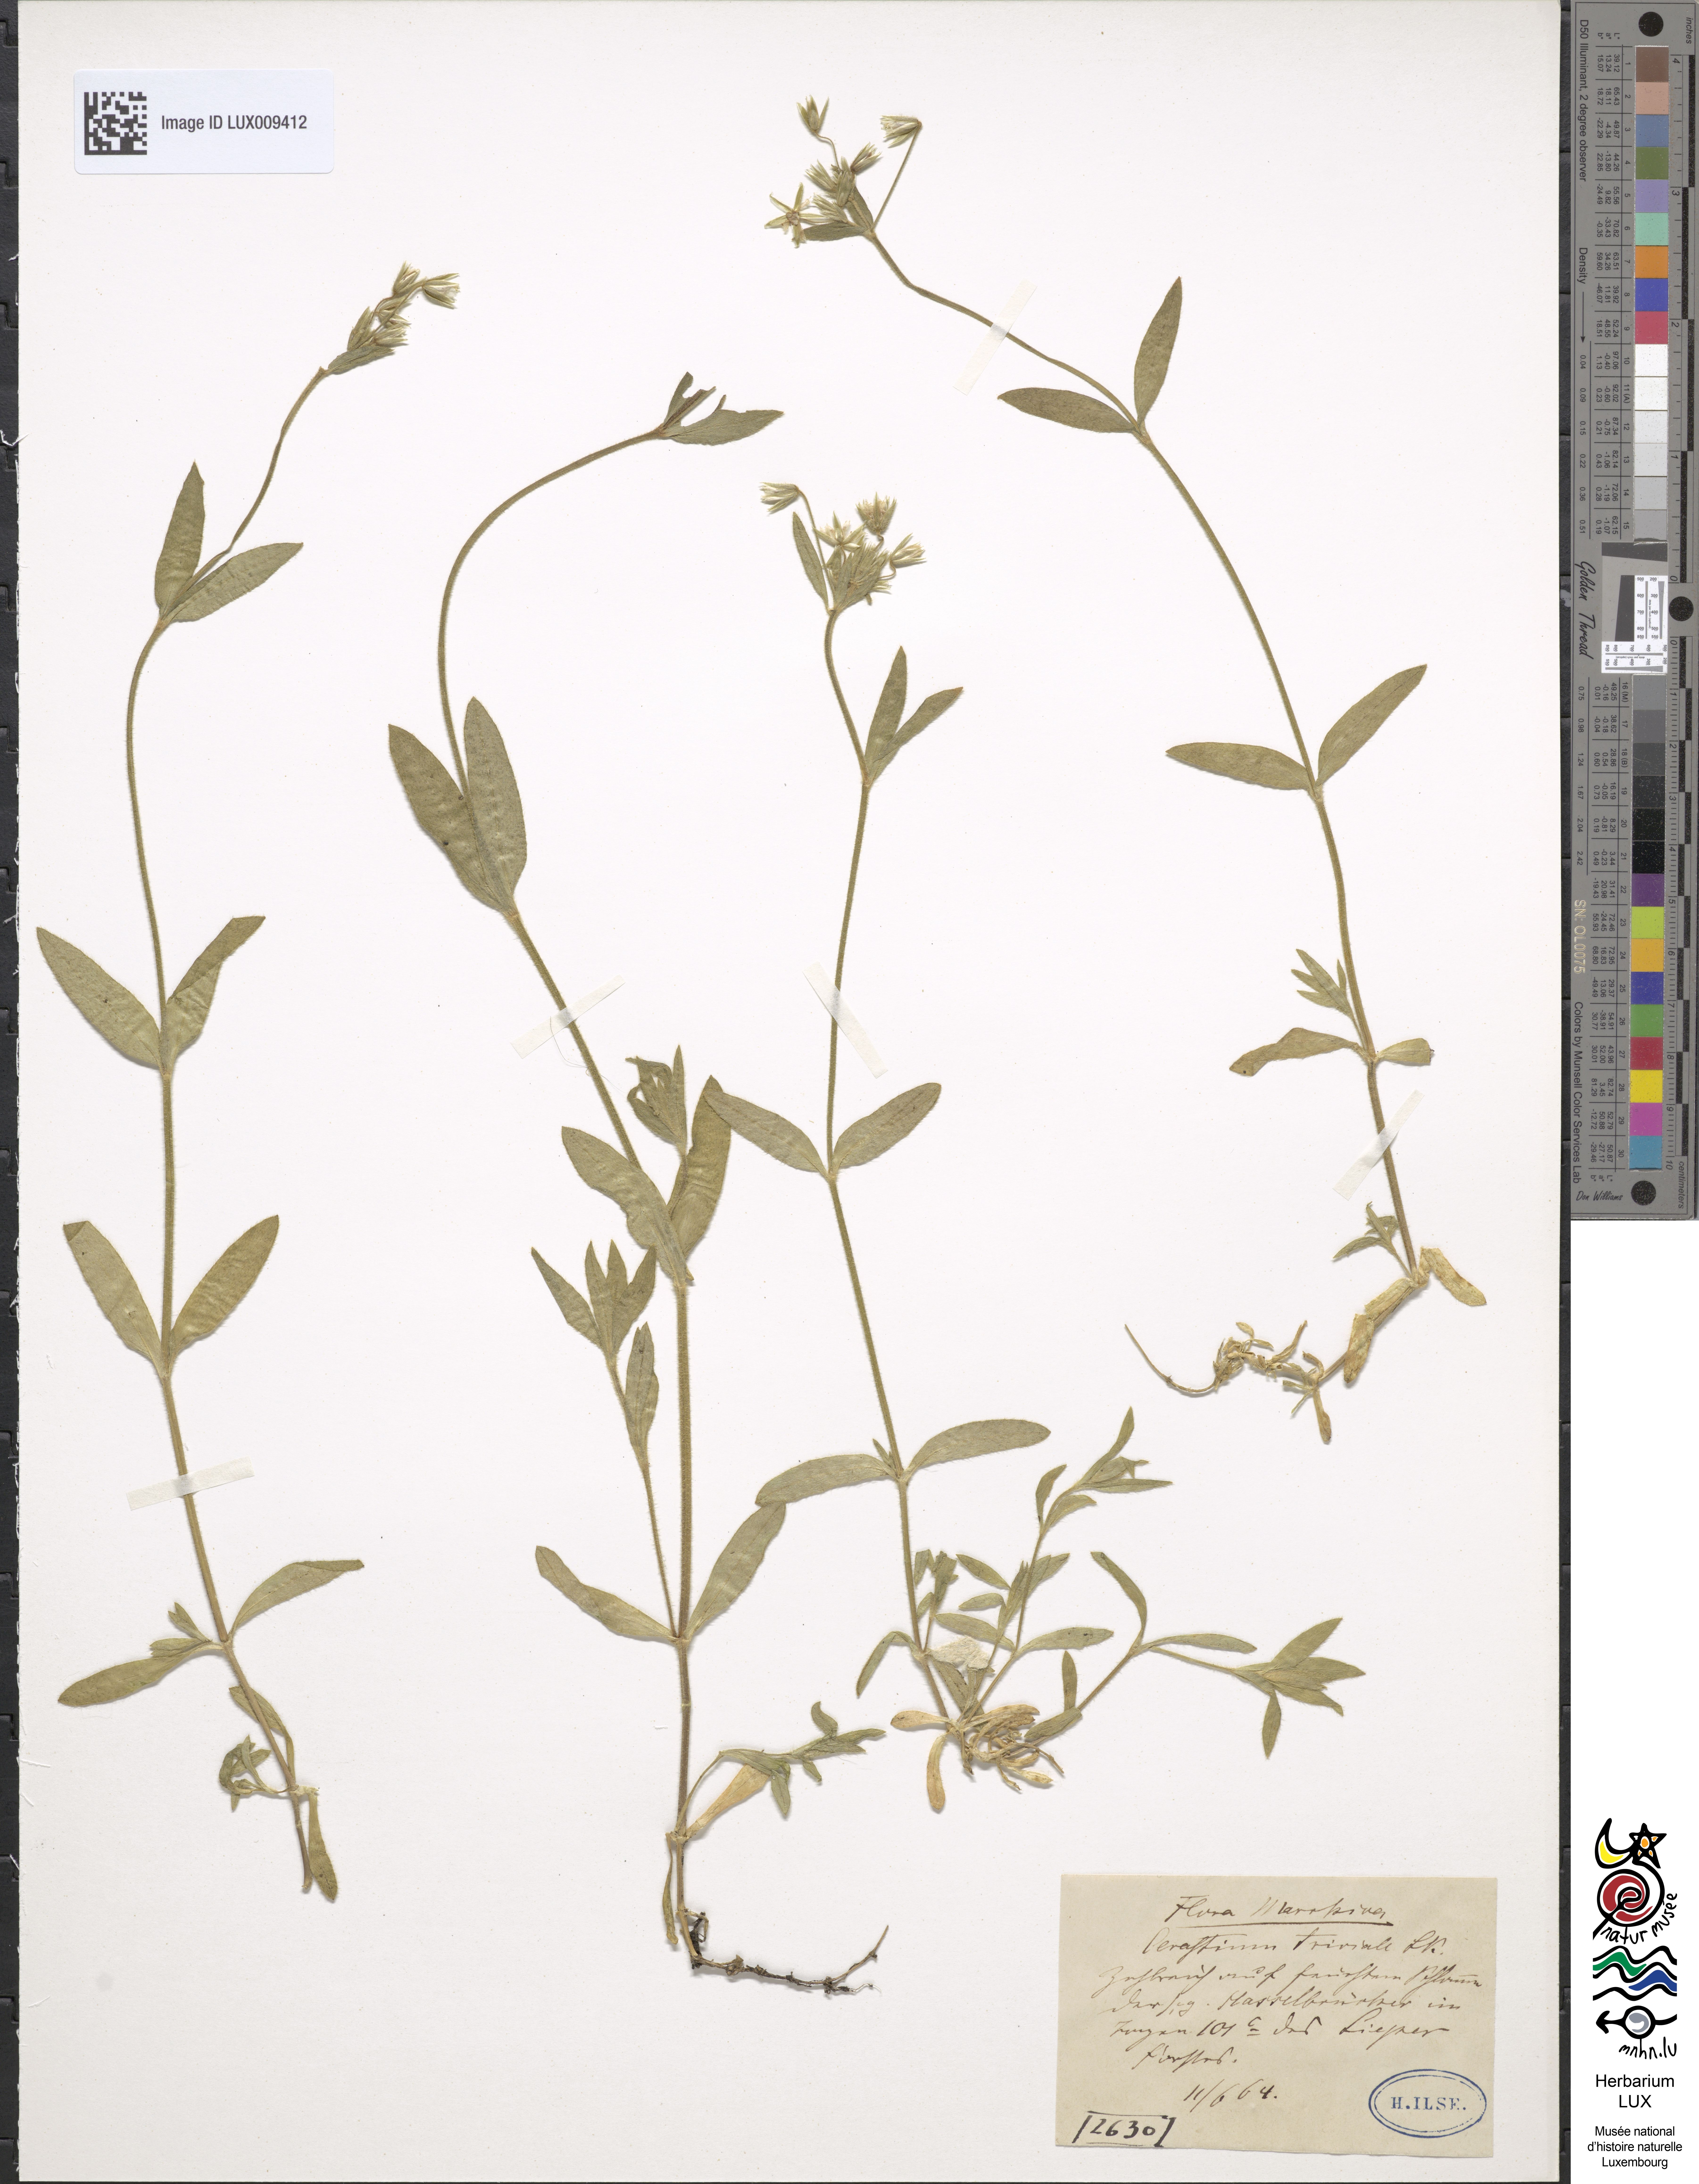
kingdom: Plantae
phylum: Tracheophyta
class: Magnoliopsida
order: Caryophyllales
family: Caryophyllaceae
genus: Cerastium
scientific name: Cerastium holosteoides
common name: Big chickweed
